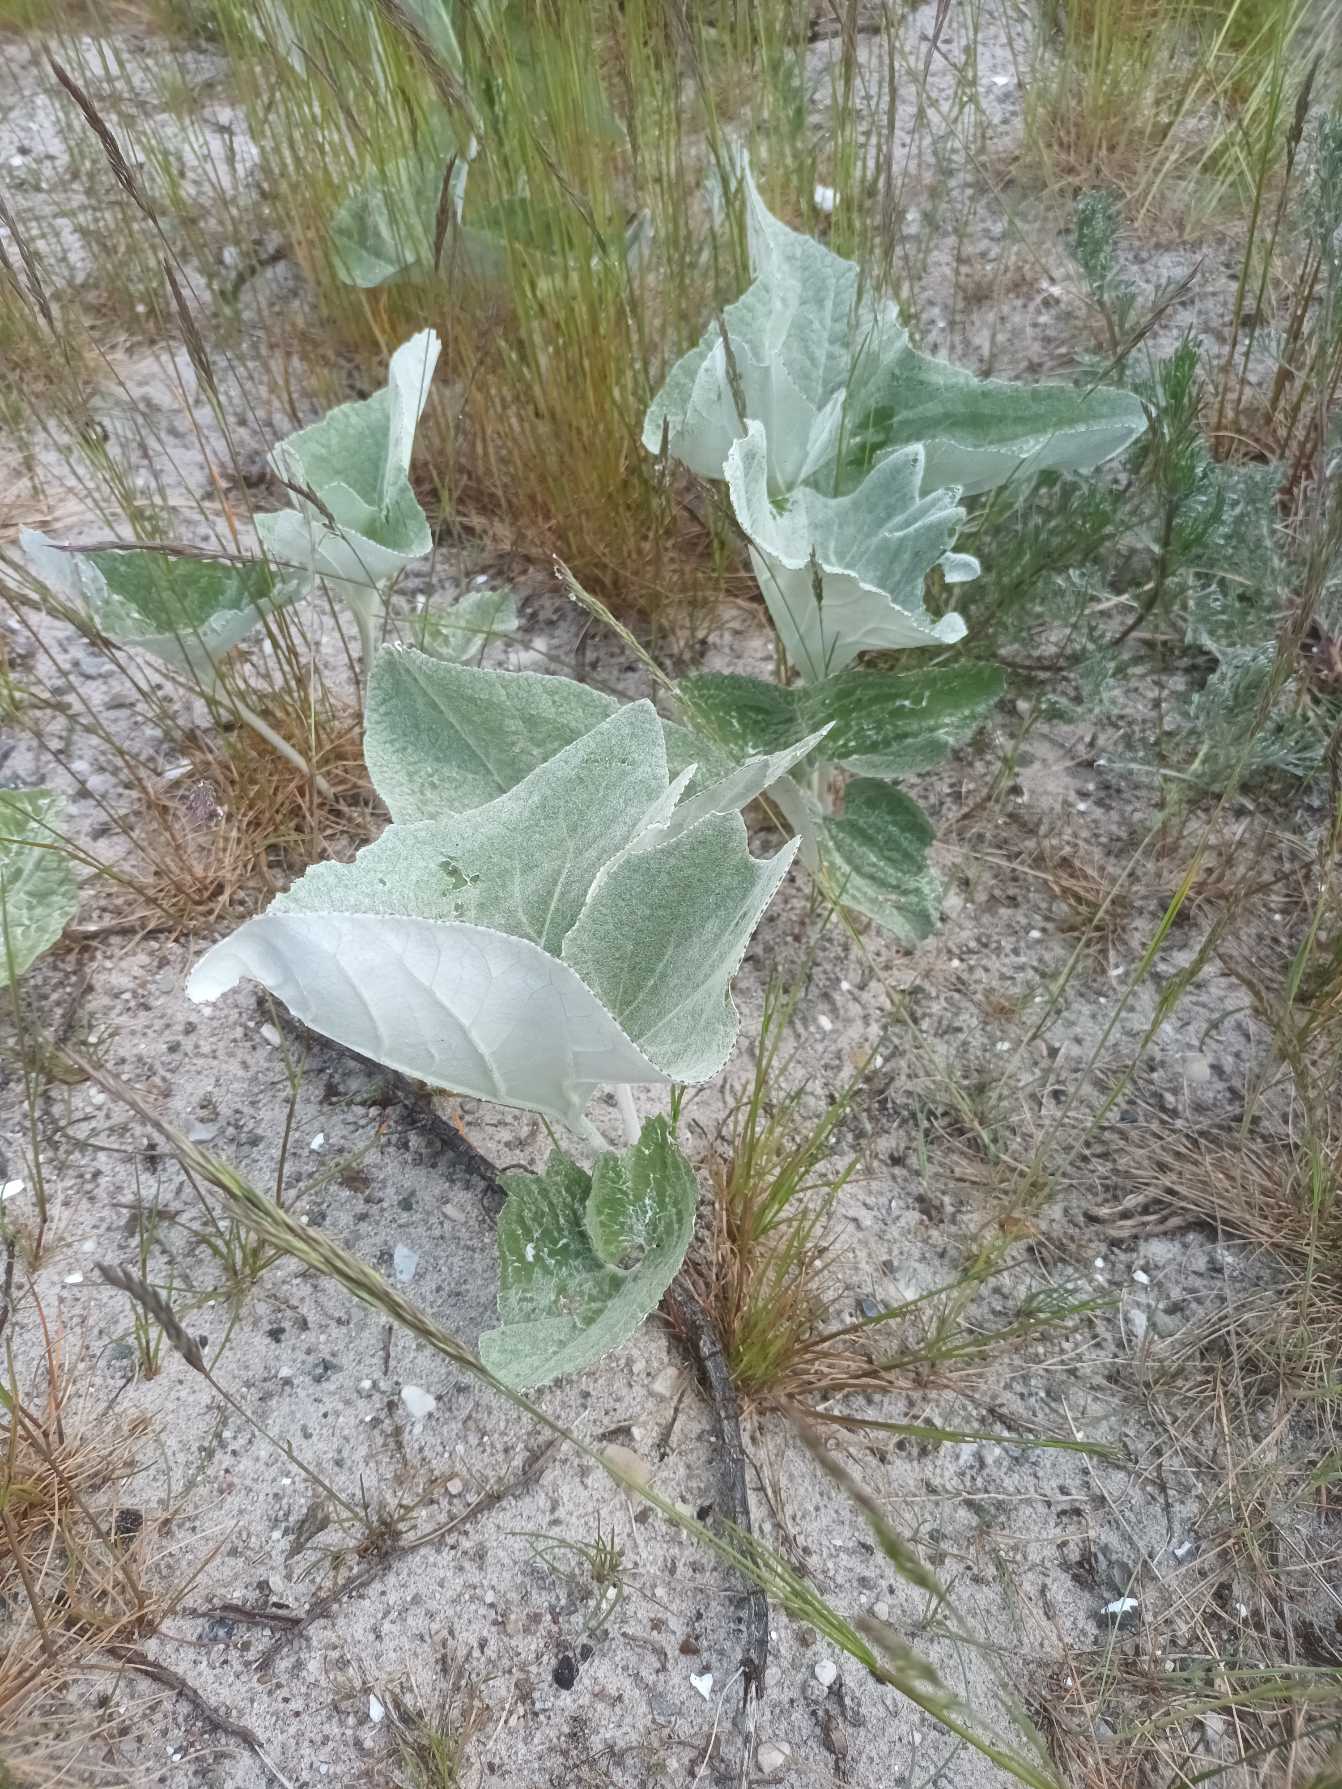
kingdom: Plantae
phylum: Tracheophyta
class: Magnoliopsida
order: Asterales
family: Asteraceae
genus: Petasites
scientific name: Petasites spurius
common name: Filtet hestehov
